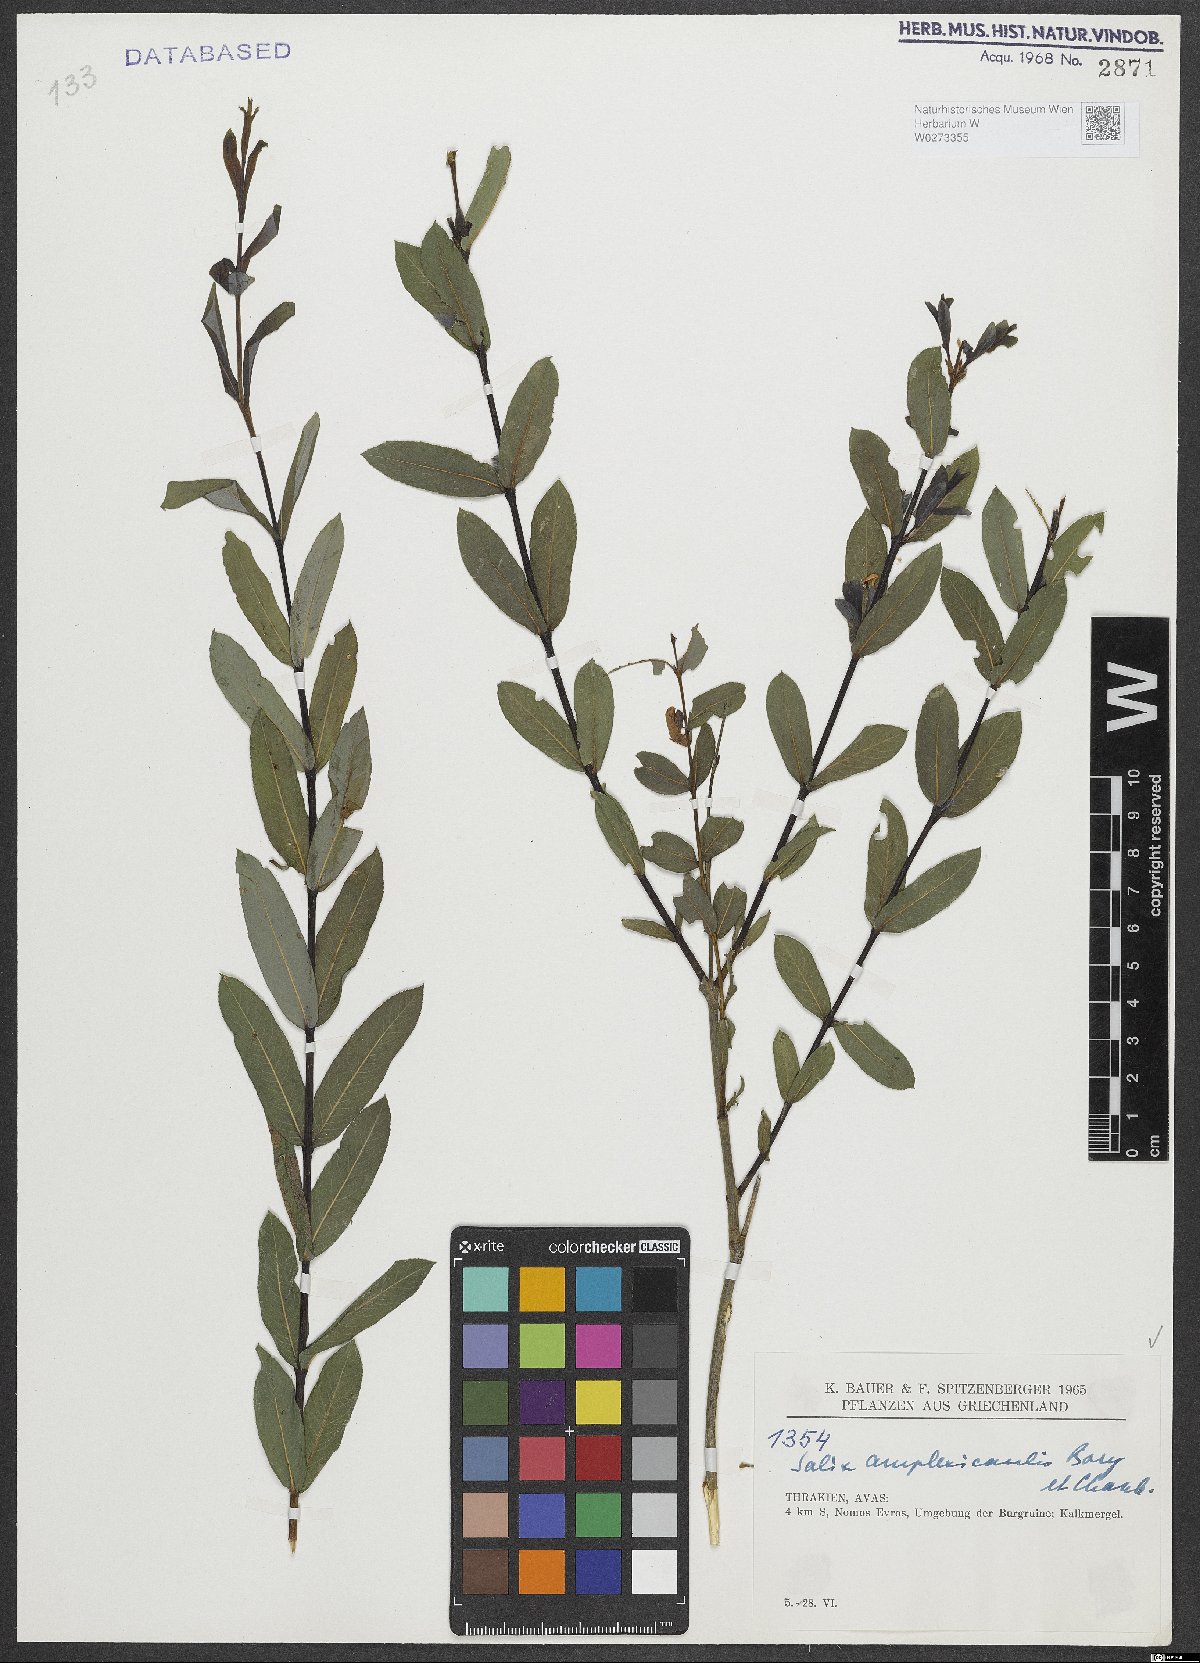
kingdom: Plantae
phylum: Tracheophyta
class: Magnoliopsida
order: Malpighiales
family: Salicaceae
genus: Salix
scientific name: Salix amplexicaulis
